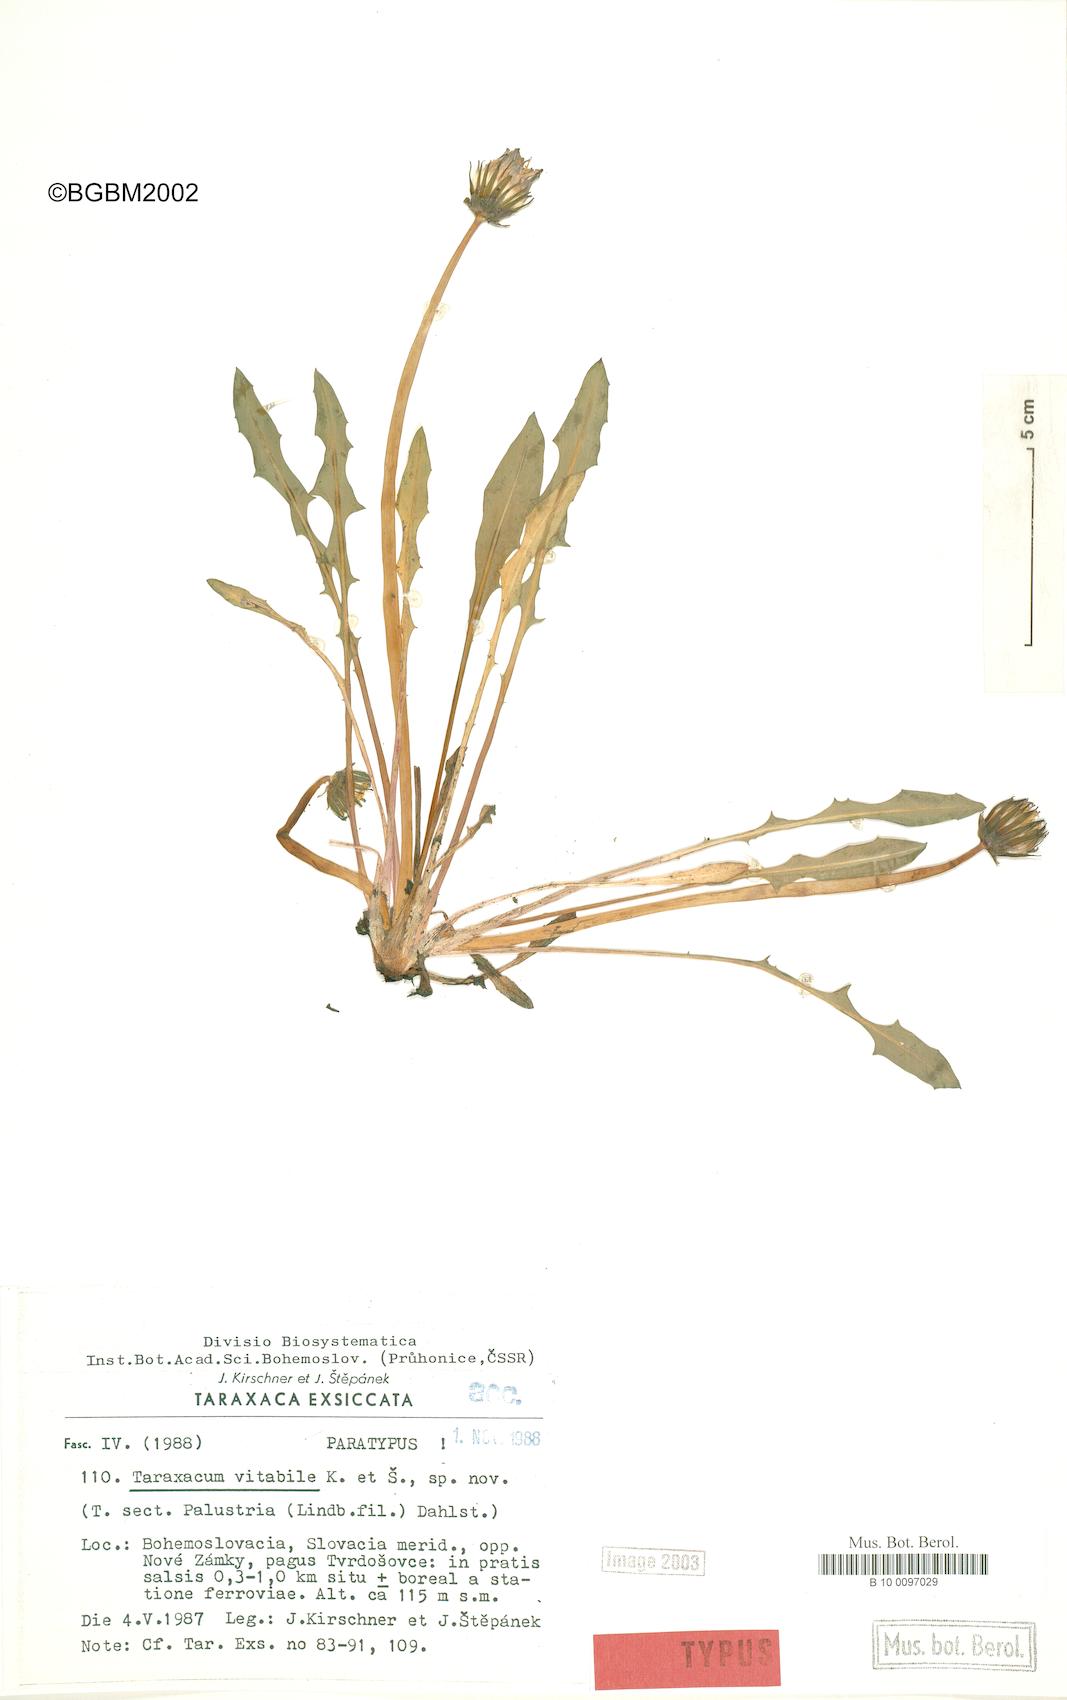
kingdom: Plantae
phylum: Tracheophyta
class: Magnoliopsida
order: Asterales
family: Asteraceae
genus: Taraxacum
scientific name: Taraxacum vindobonense
